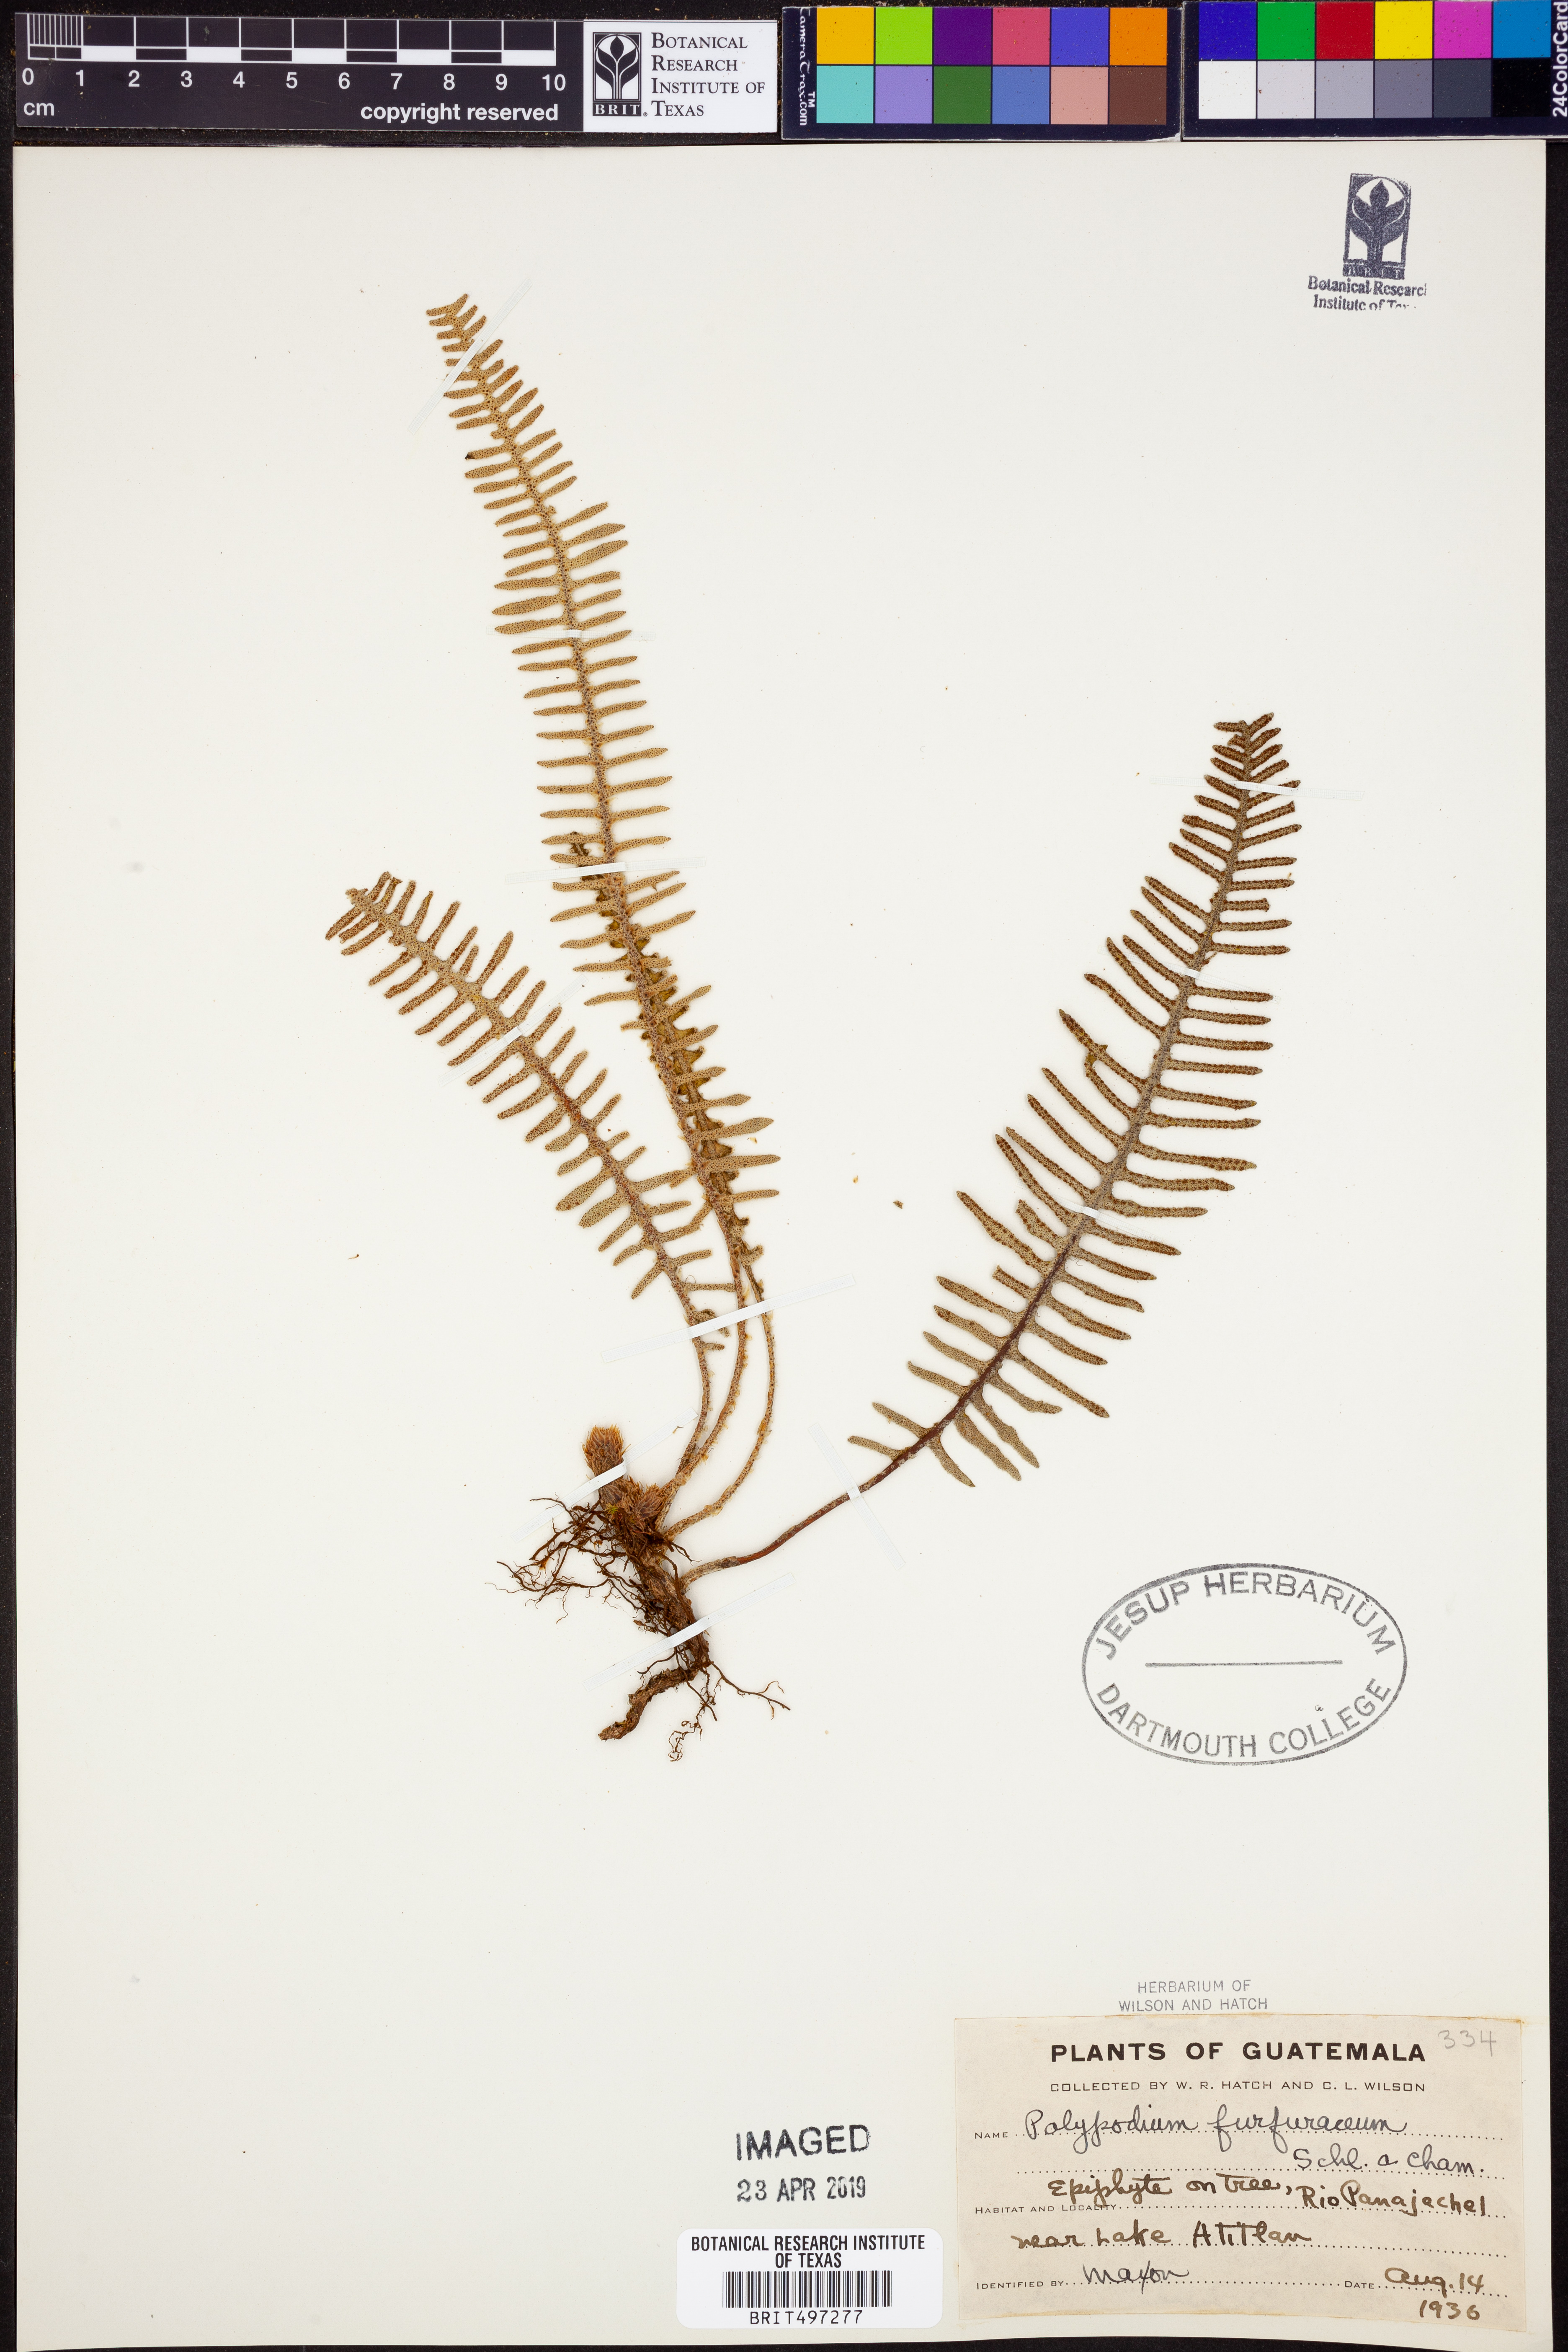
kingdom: Plantae
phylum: Tracheophyta
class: Polypodiopsida
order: Polypodiales
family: Polypodiaceae
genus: Pyrrosia
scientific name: Pyrrosia longifolia
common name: Long-leaved felt fern
